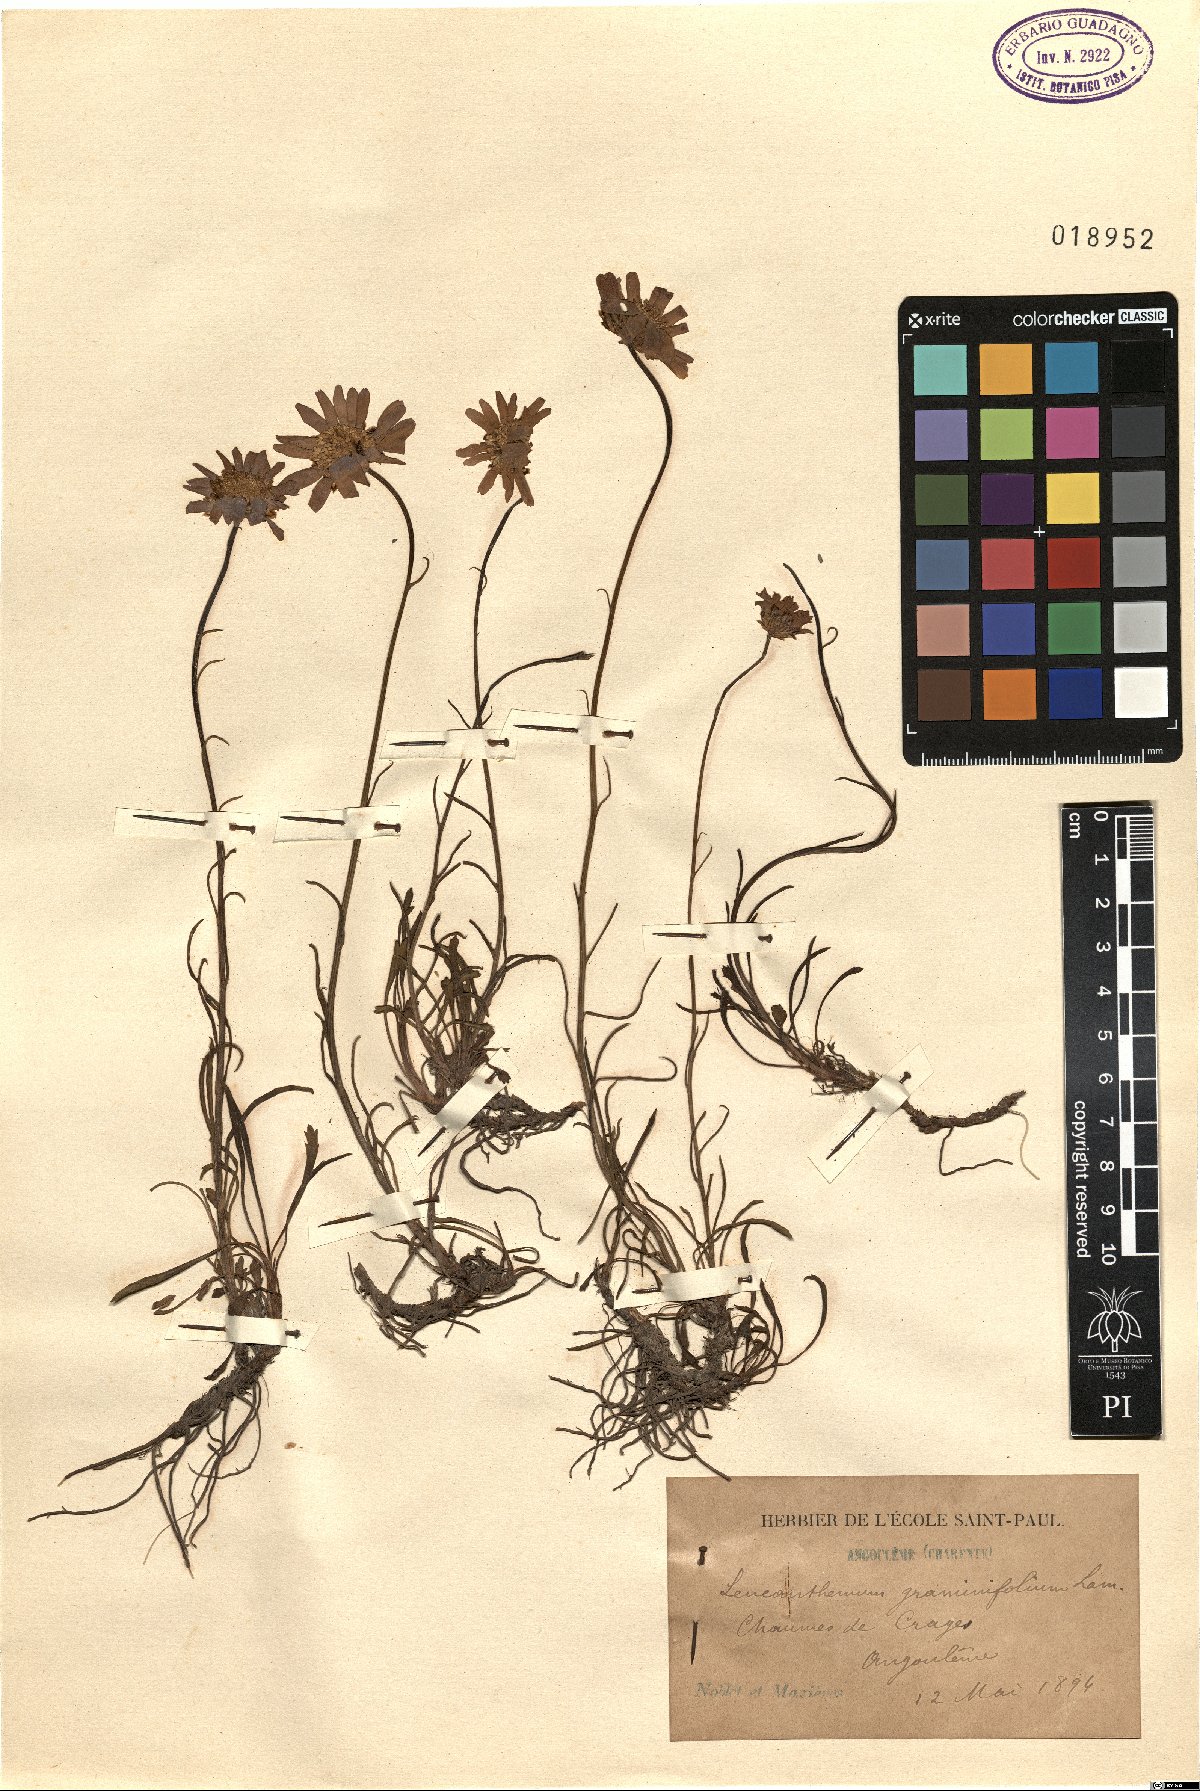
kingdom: Plantae
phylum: Tracheophyta
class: Magnoliopsida
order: Asterales
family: Asteraceae
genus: Leucanthemum
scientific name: Leucanthemum graminifolium
